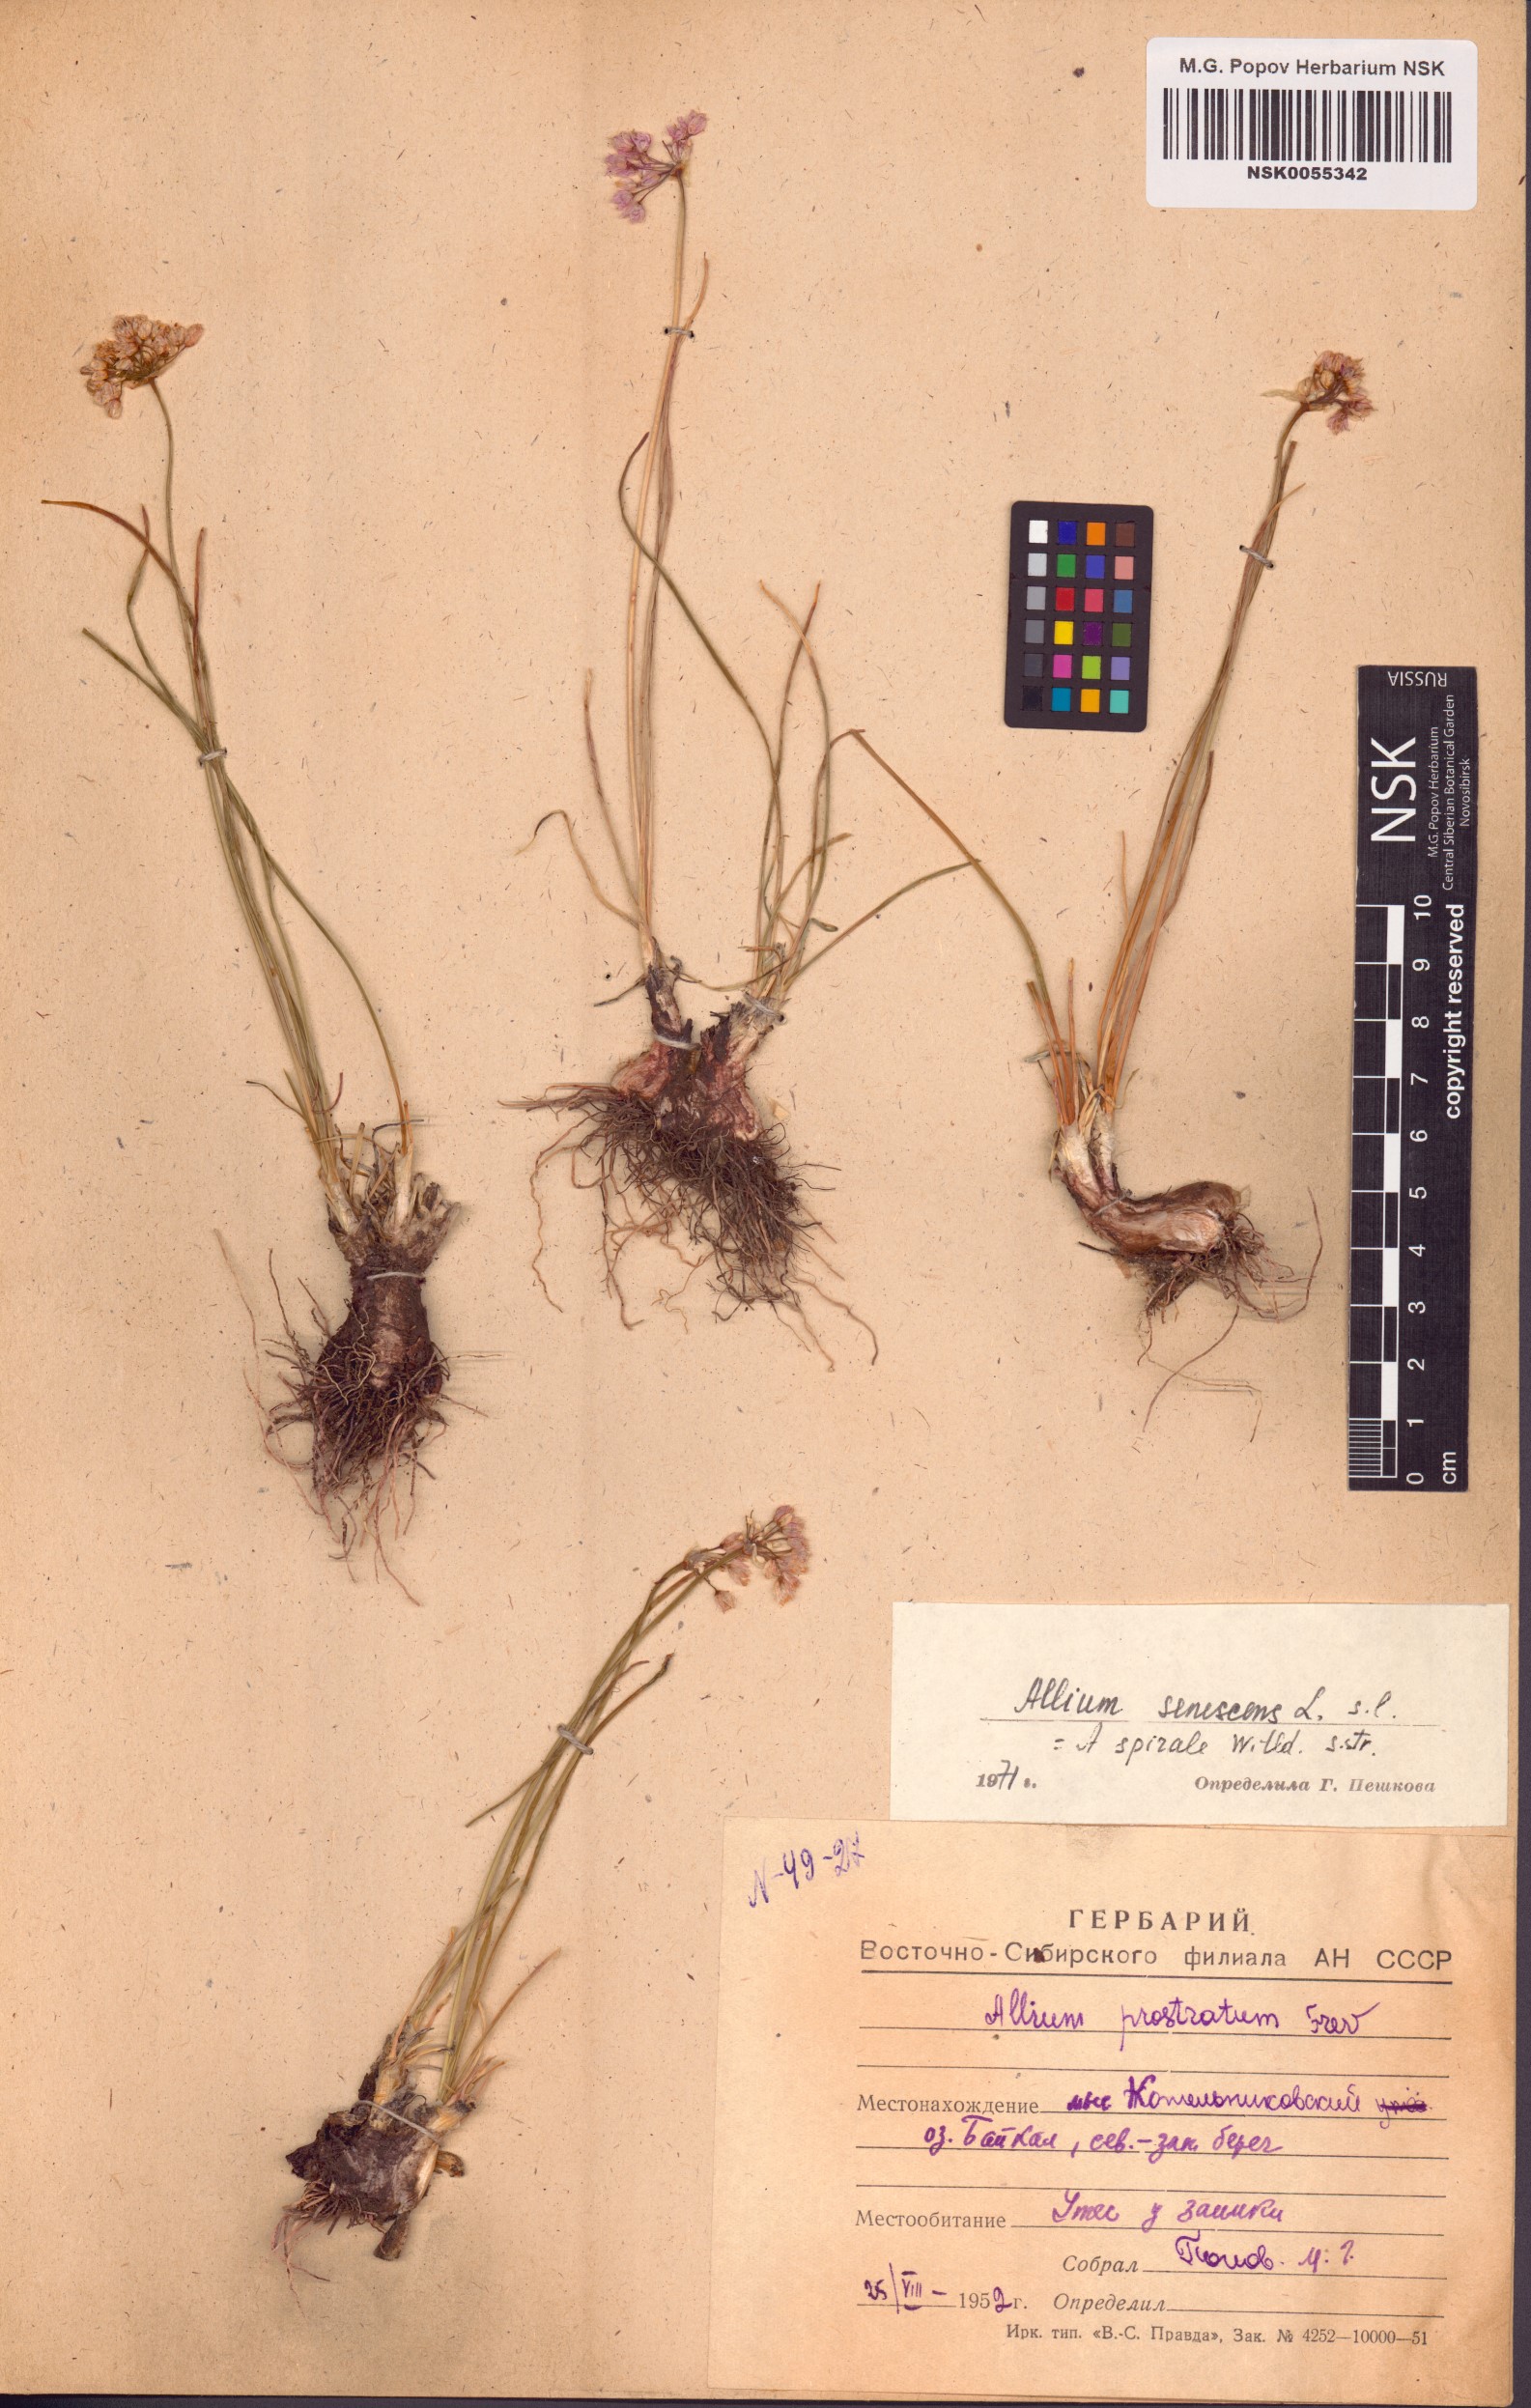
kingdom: Plantae
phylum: Tracheophyta
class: Liliopsida
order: Asparagales
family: Amaryllidaceae
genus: Allium
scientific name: Allium senescens
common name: German garlic
